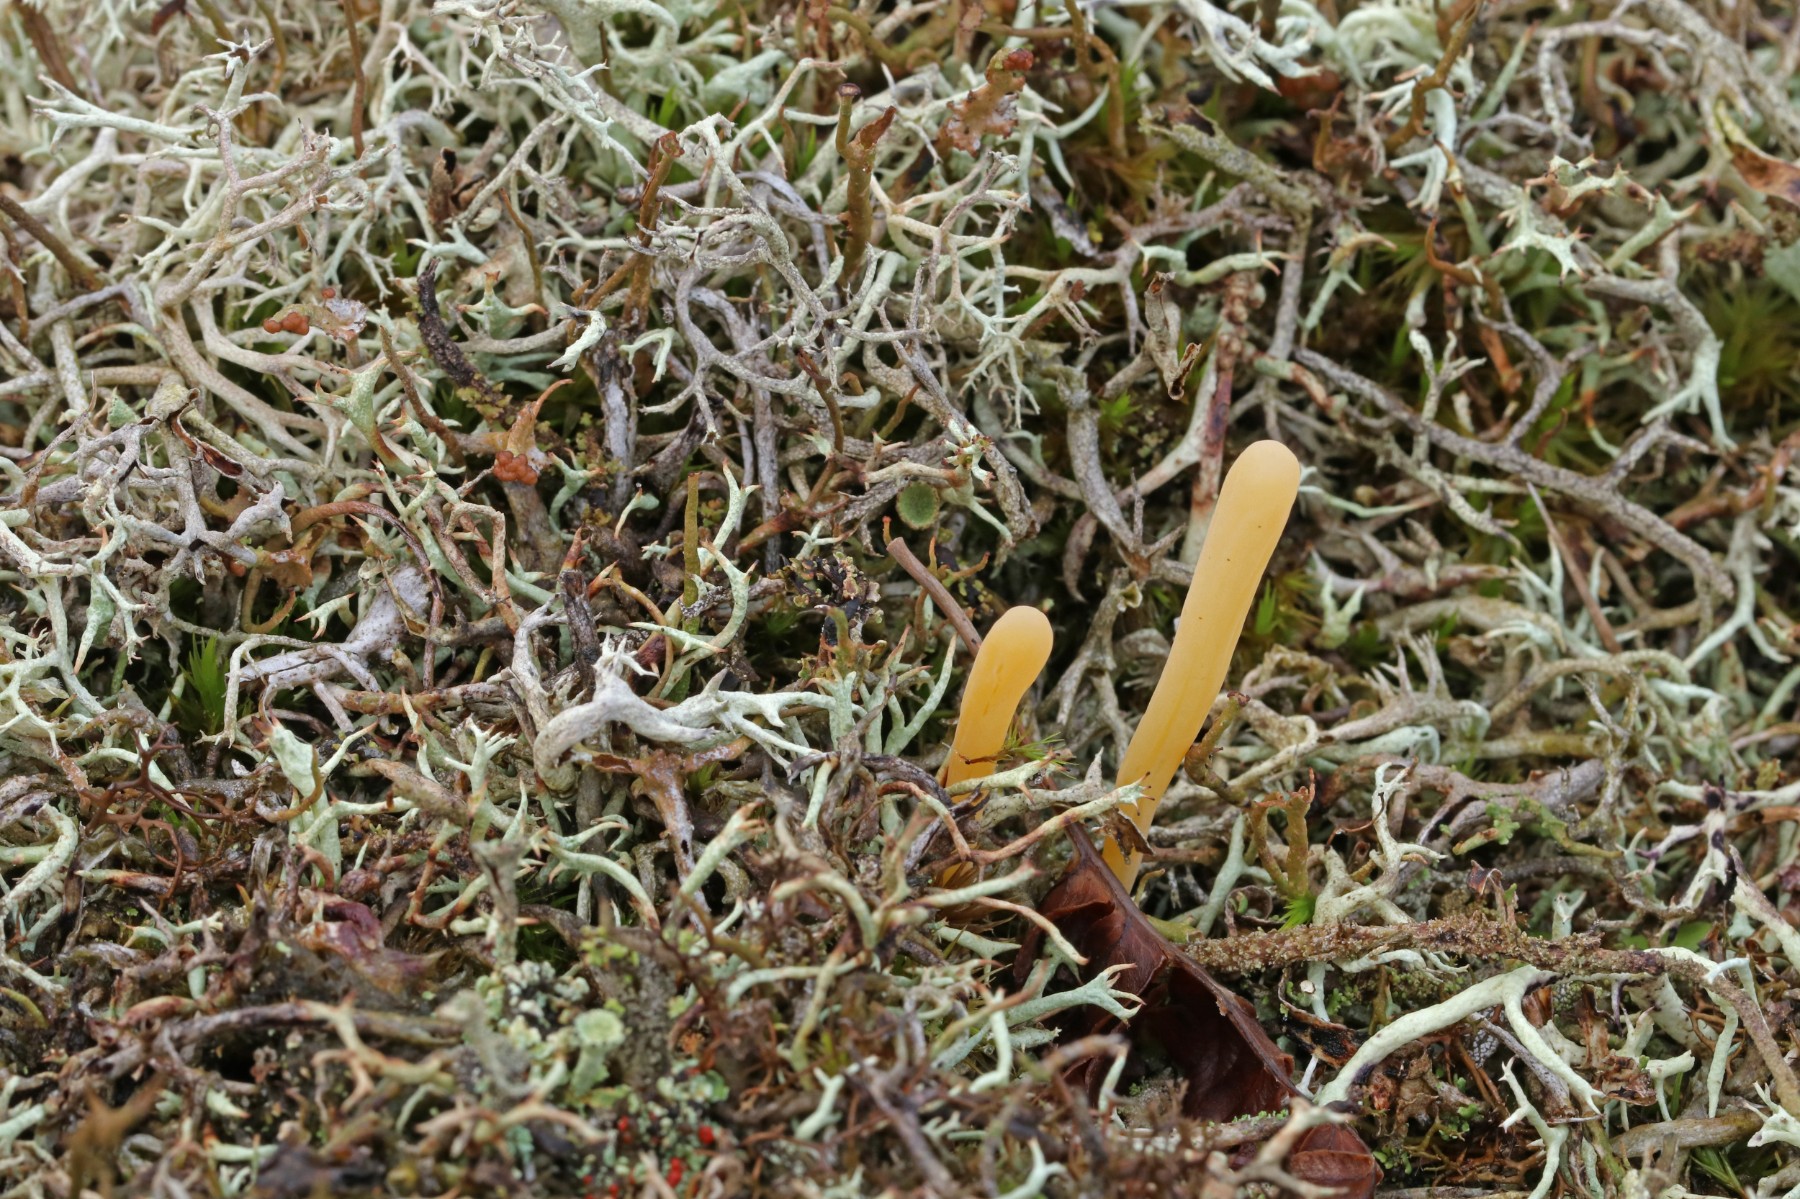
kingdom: Fungi
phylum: Basidiomycota
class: Agaricomycetes
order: Agaricales
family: Clavariaceae
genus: Clavaria
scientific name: Clavaria argillacea
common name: lerfarvet køllesvamp
